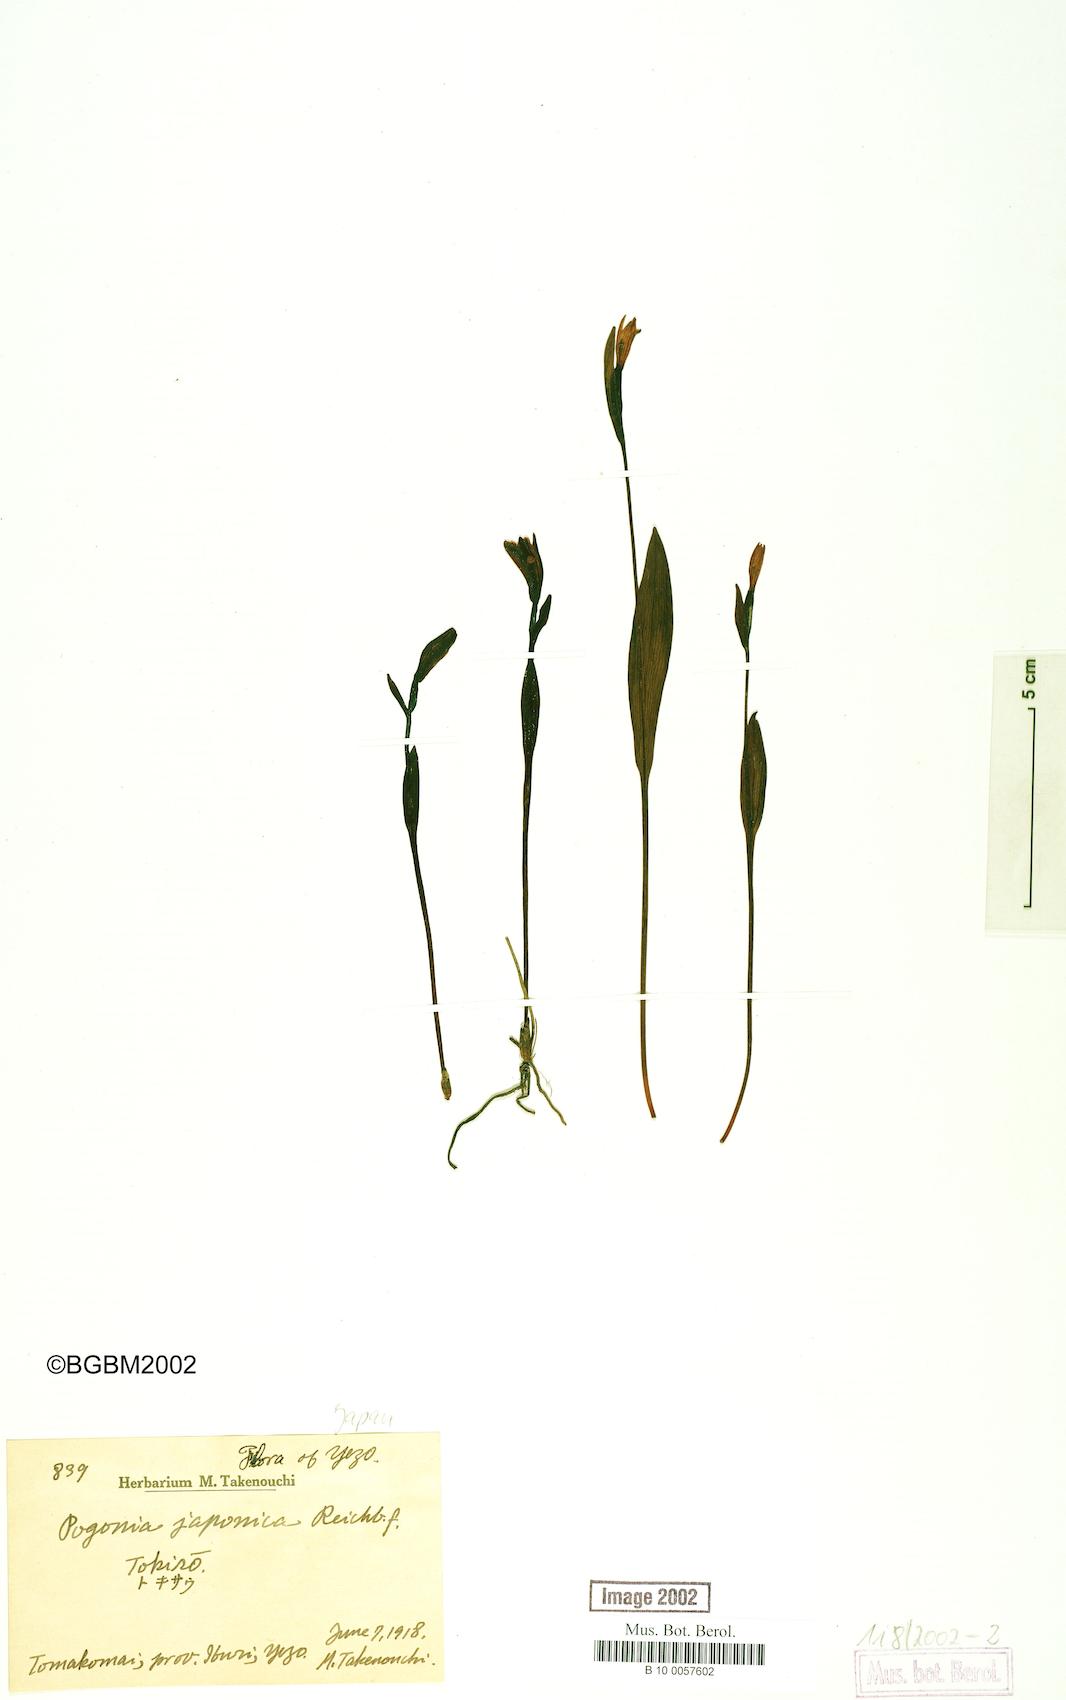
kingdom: Plantae
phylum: Tracheophyta
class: Liliopsida
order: Asparagales
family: Orchidaceae
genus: Pogonia
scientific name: Pogonia japonica
